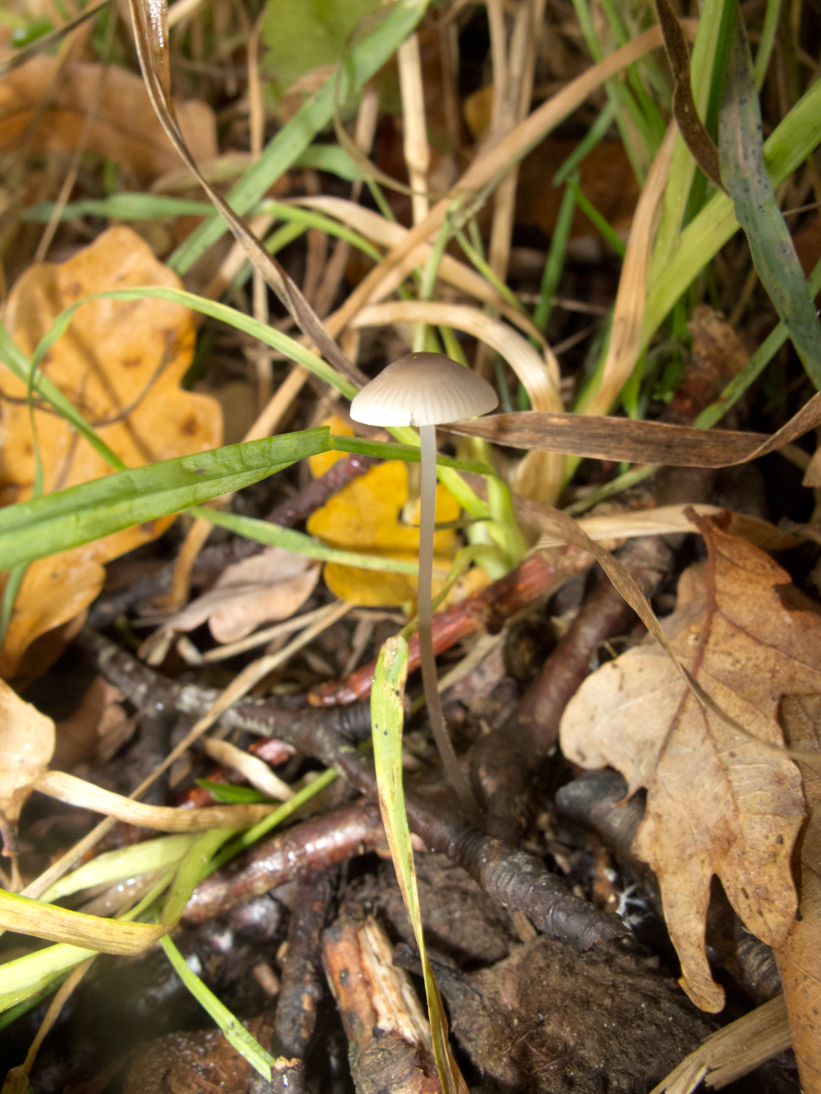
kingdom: Fungi
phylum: Basidiomycota
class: Agaricomycetes
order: Agaricales
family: Mycenaceae
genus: Mycena
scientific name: Mycena vitilis
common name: blankstokket huesvamp
